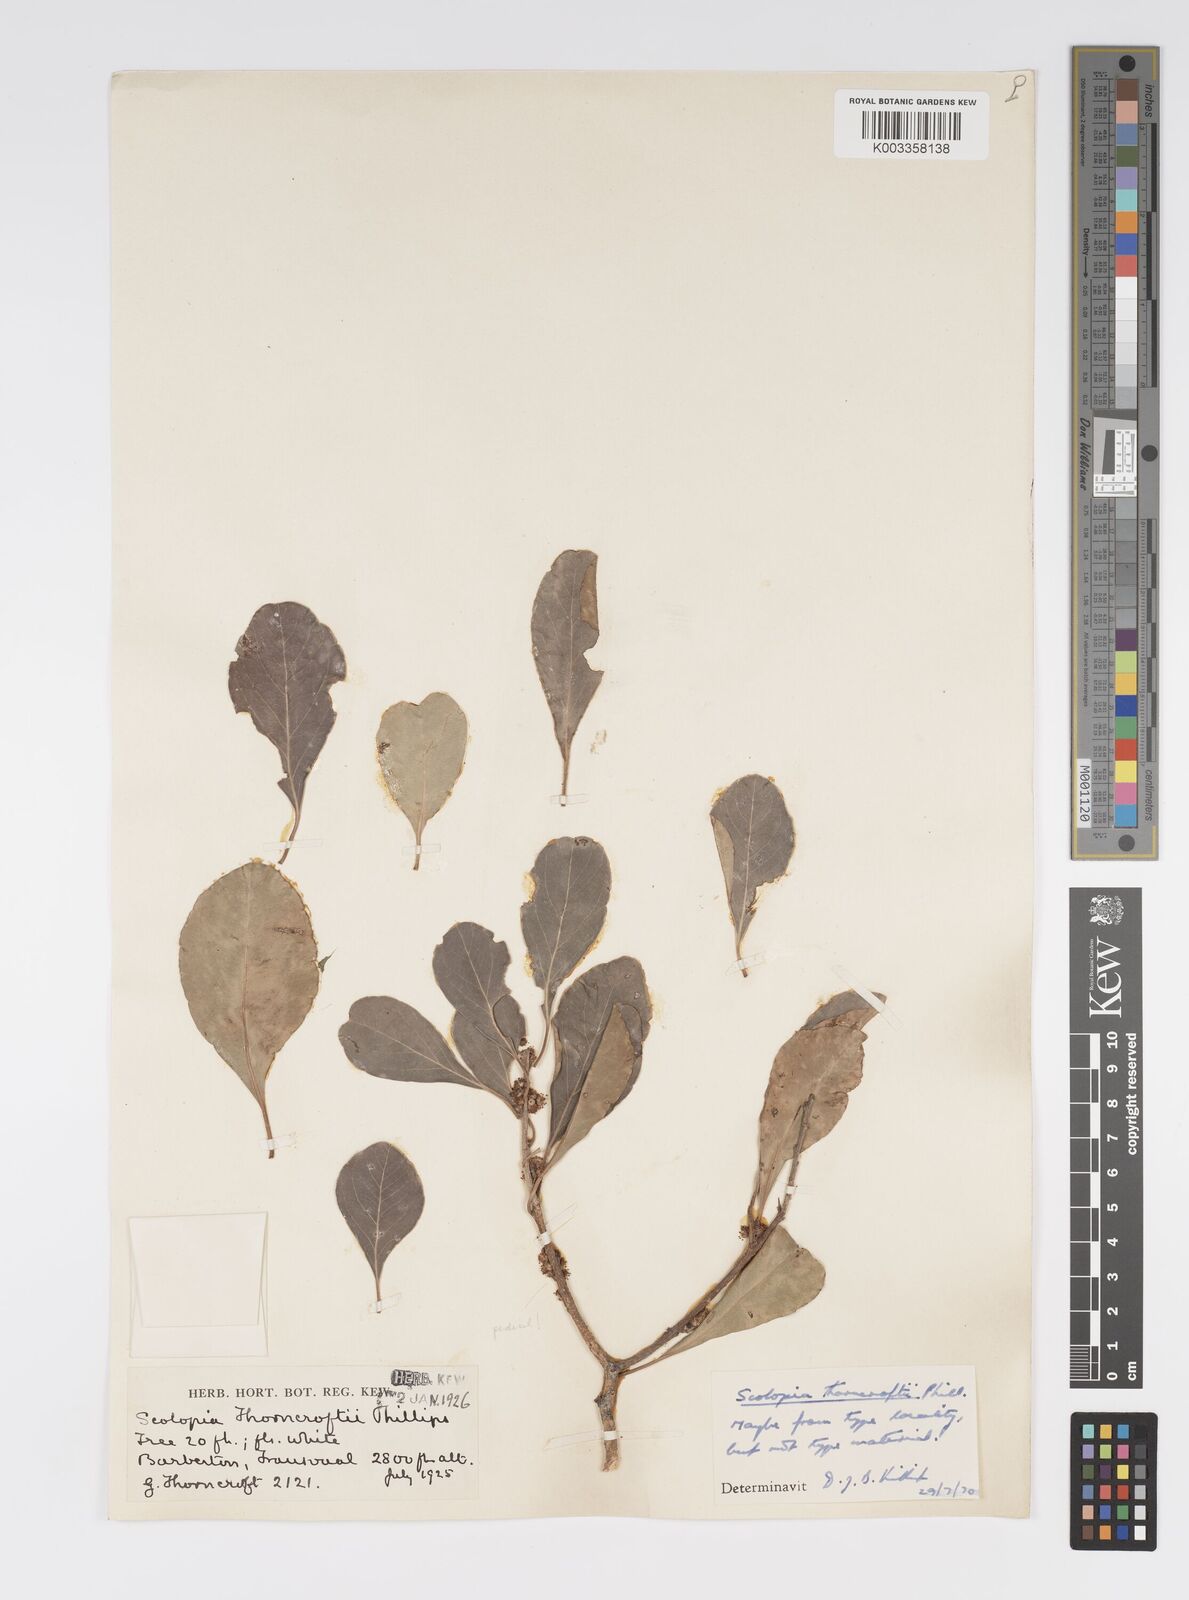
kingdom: Plantae
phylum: Tracheophyta
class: Magnoliopsida
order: Malpighiales
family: Salicaceae
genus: Scolopia
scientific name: Scolopia zeyheri
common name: Thorn pear
